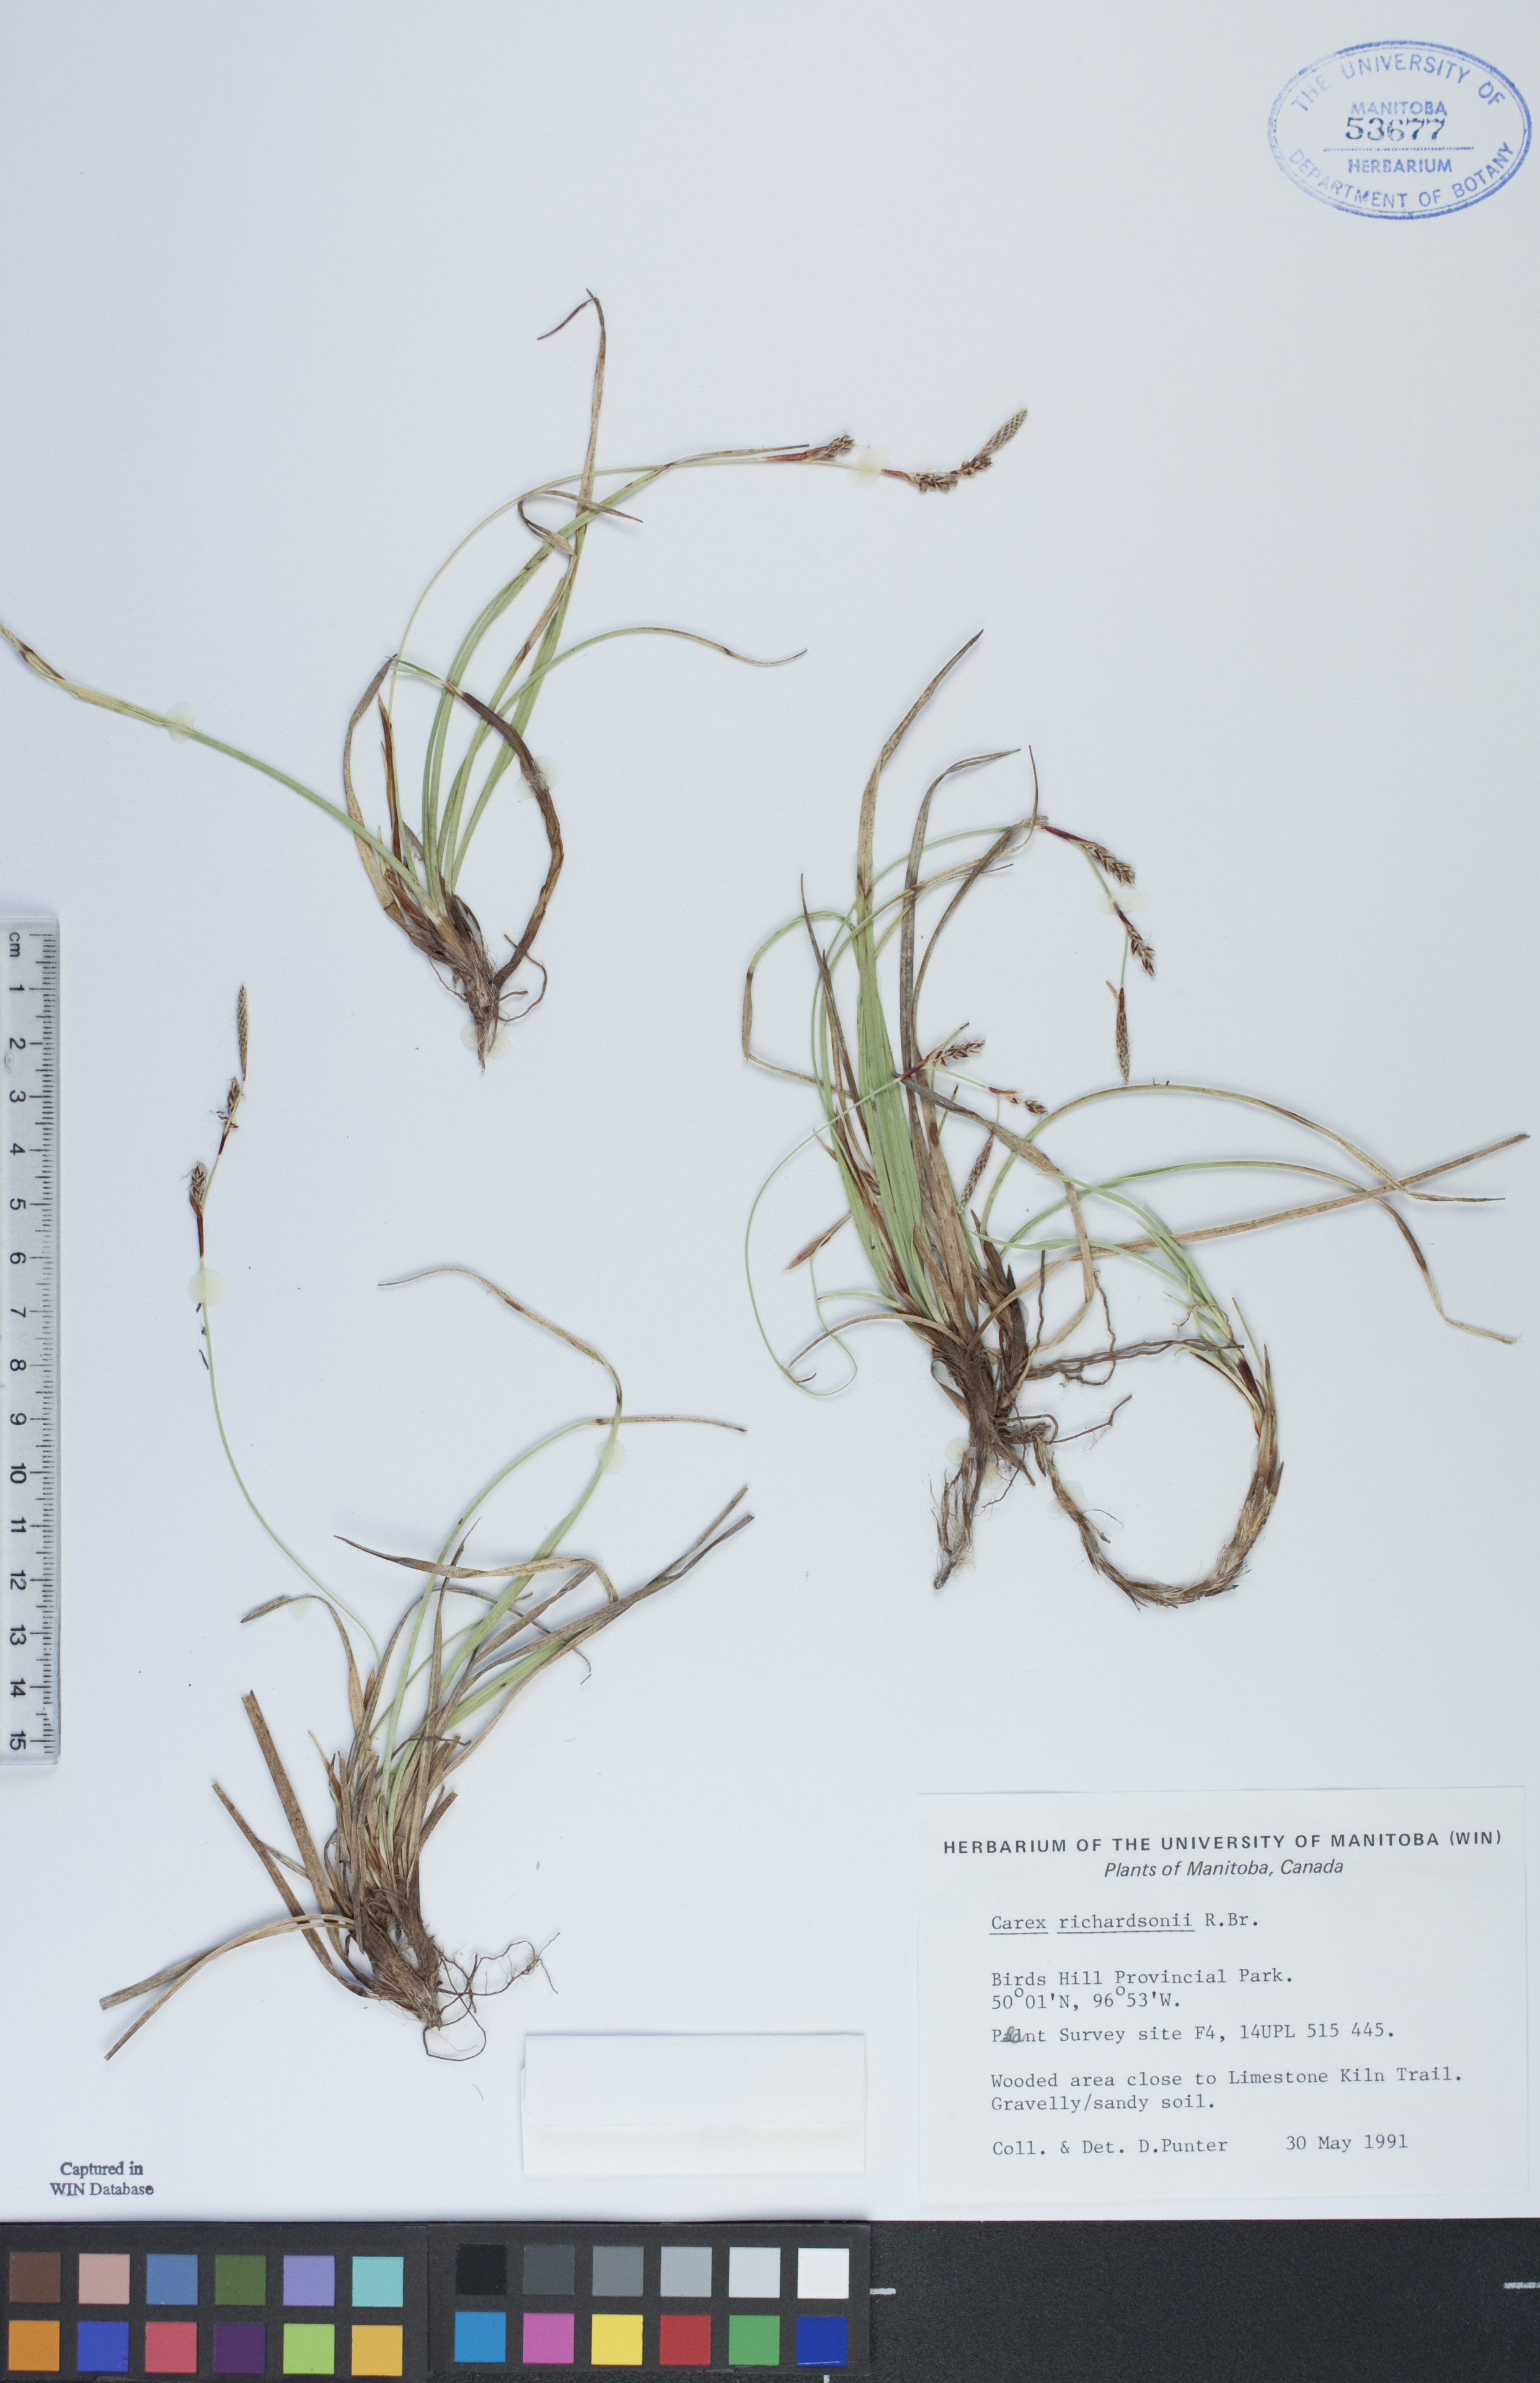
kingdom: Plantae
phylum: Tracheophyta
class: Liliopsida
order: Poales
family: Cyperaceae
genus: Carex
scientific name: Carex richardsonii
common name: Prairie hummock sedge
